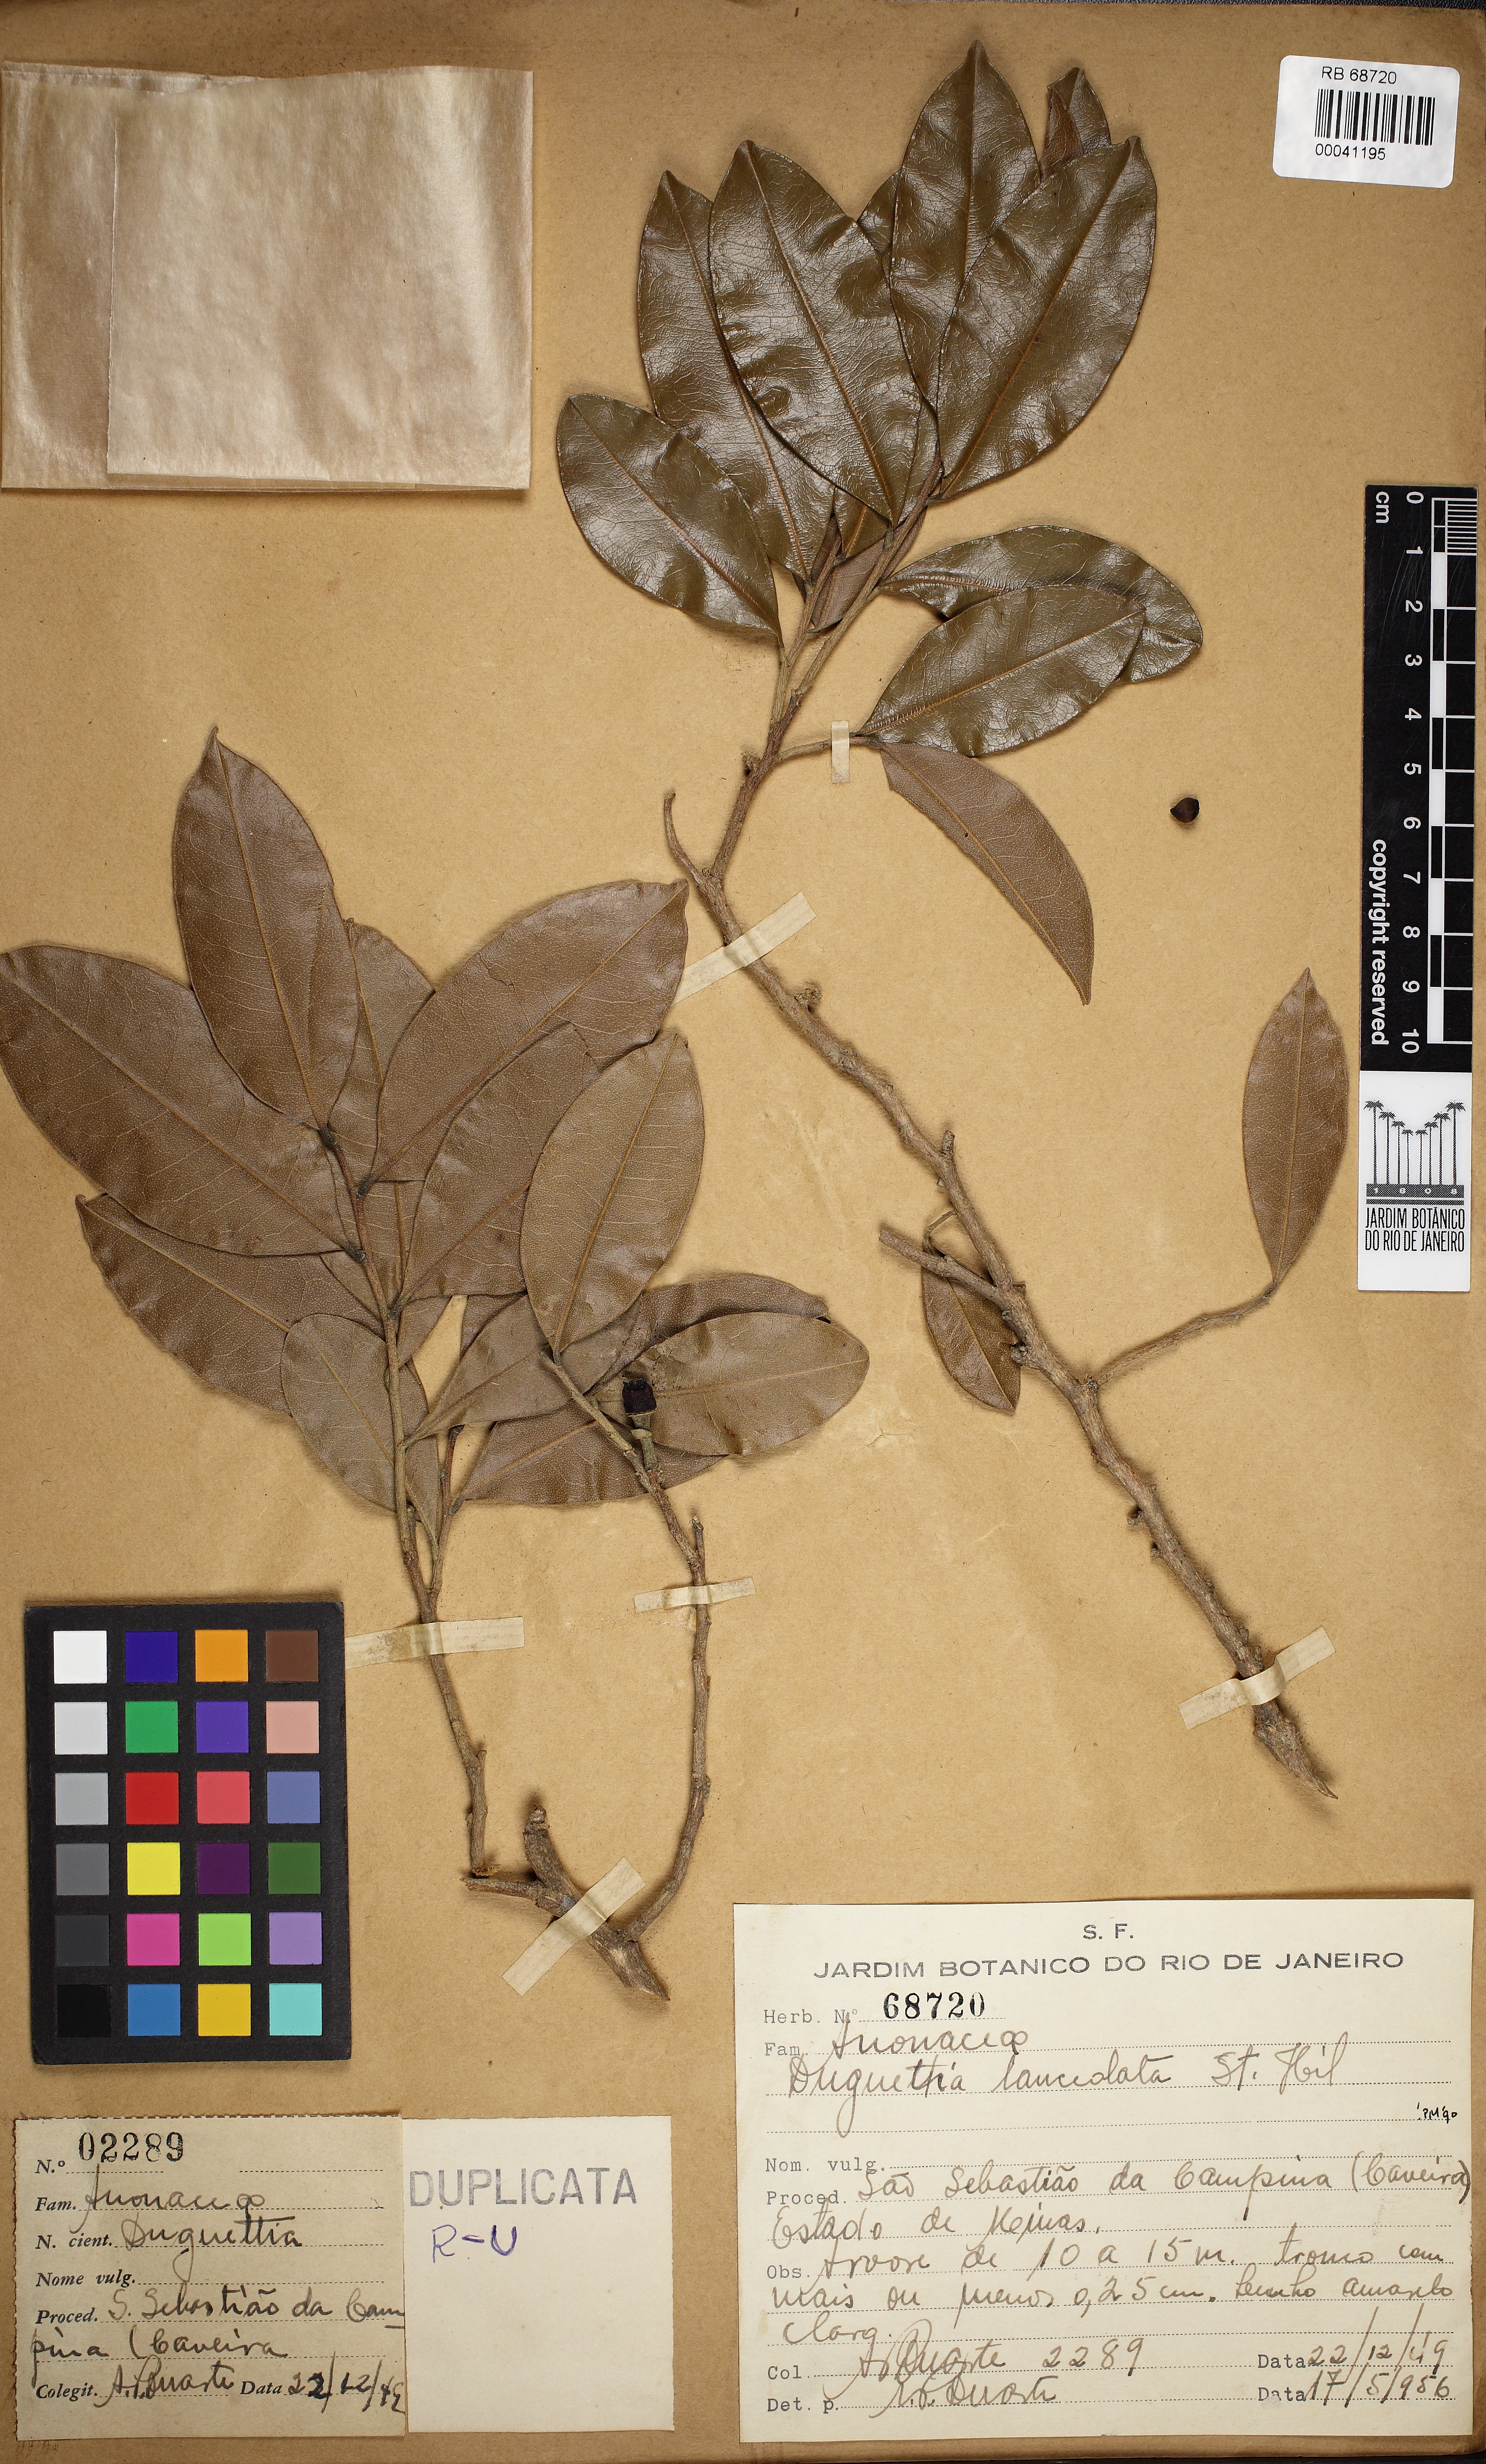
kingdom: Plantae
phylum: Tracheophyta
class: Magnoliopsida
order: Magnoliales
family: Annonaceae
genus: Duguetia
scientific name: Duguetia lanceolata
